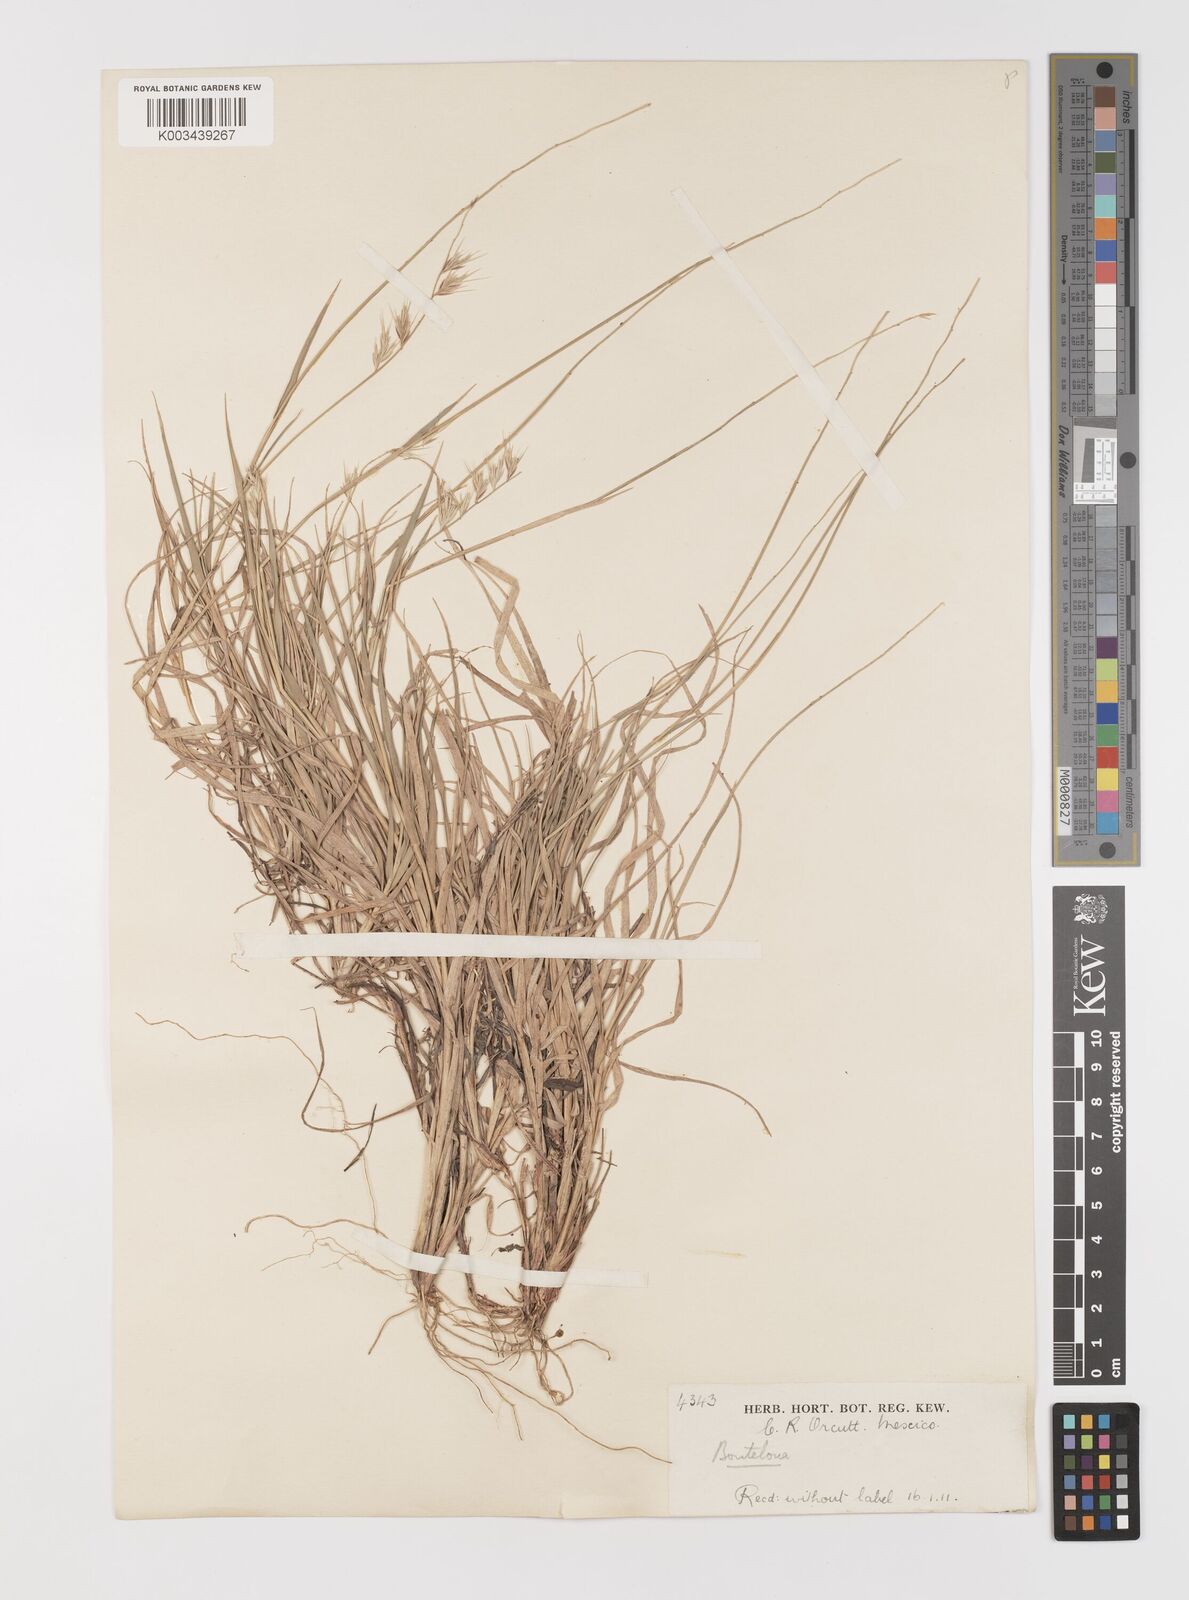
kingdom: Plantae
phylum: Tracheophyta
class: Liliopsida
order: Poales
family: Poaceae
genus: Bouteloua
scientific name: Bouteloua repens
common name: Slender grama
